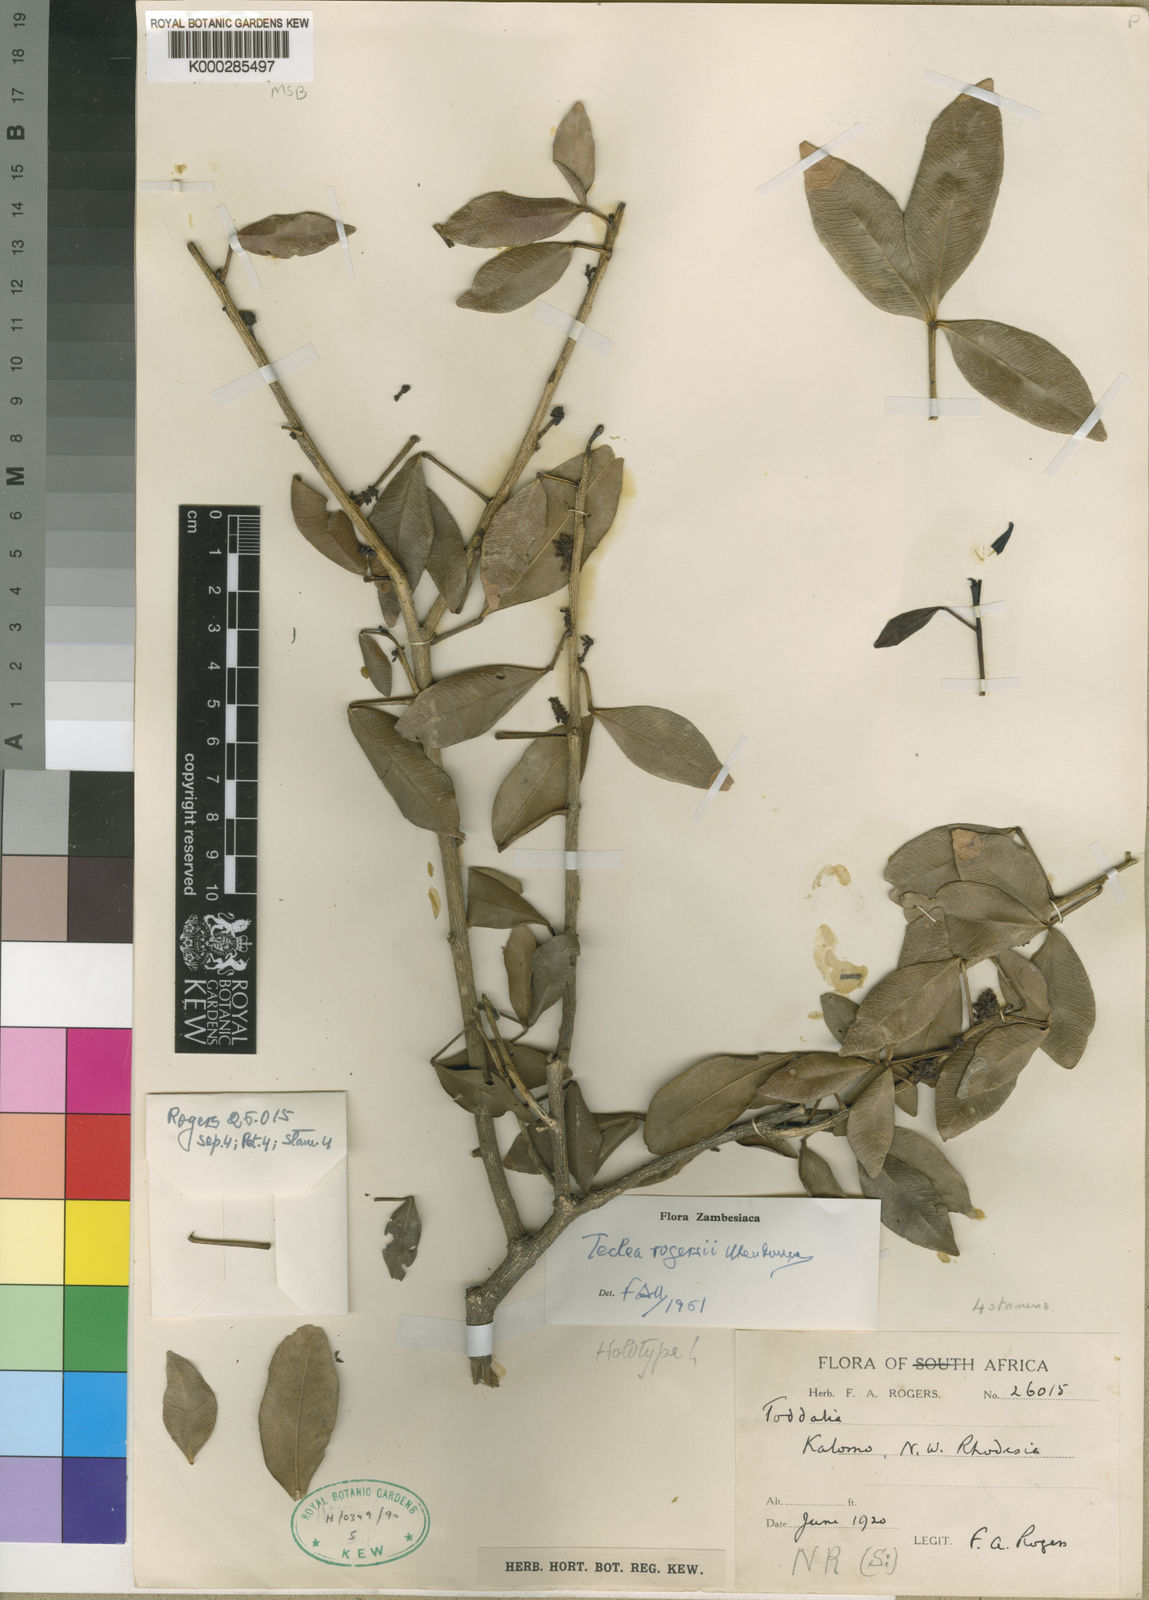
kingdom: Plantae
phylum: Tracheophyta
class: Magnoliopsida
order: Sapindales
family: Rutaceae
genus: Vepris
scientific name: Vepris
